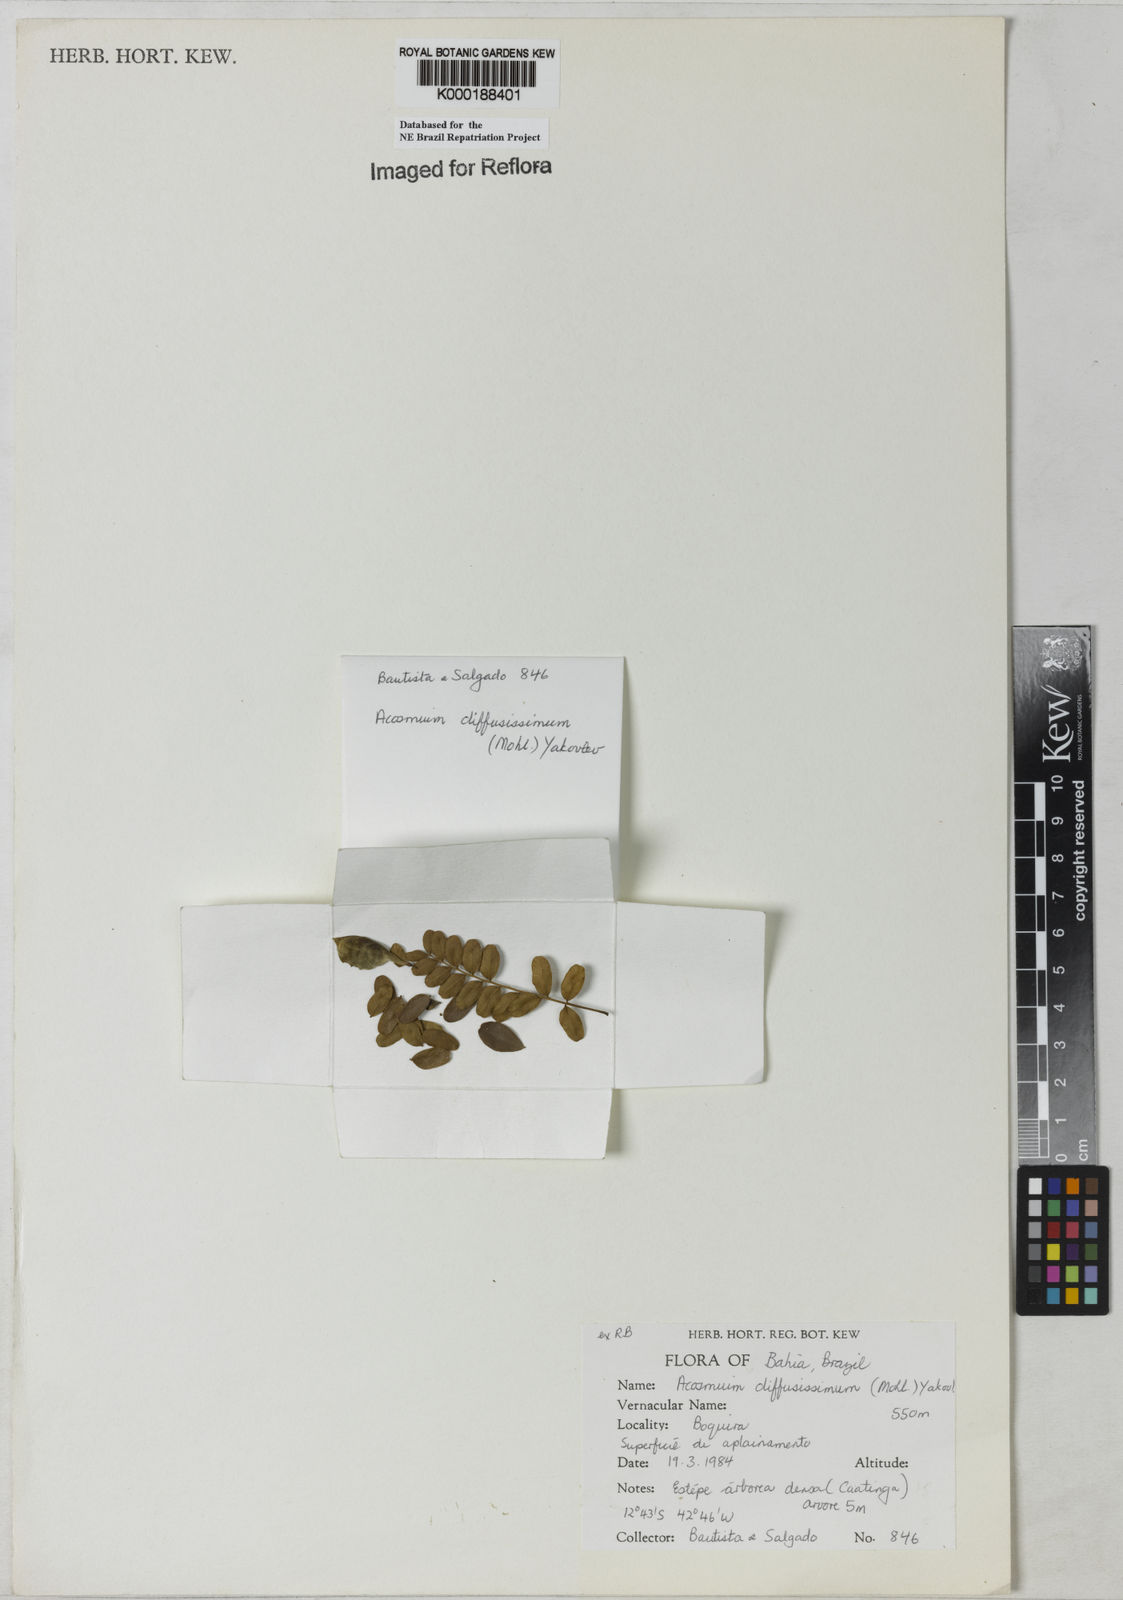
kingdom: Plantae
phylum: Tracheophyta
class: Magnoliopsida
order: Fabales
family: Fabaceae
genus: Acosmium
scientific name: Acosmium diffusissimum
